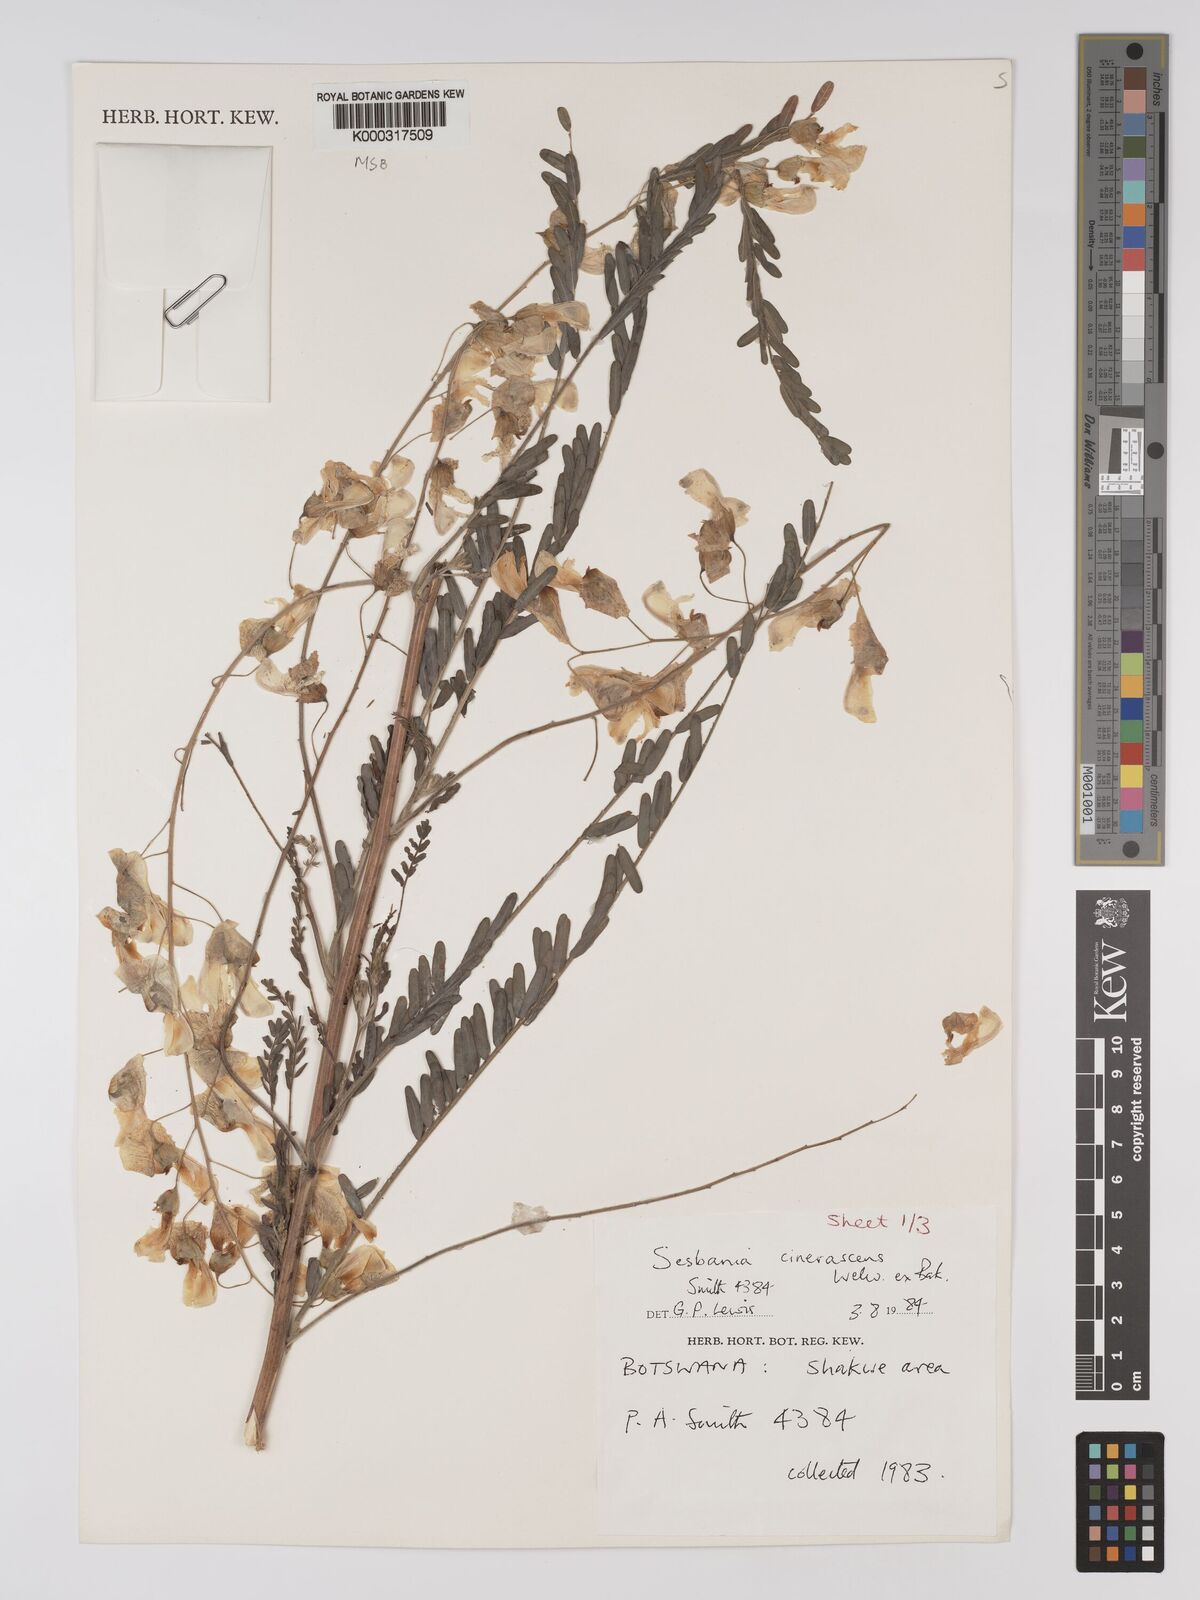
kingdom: Plantae
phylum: Tracheophyta
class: Magnoliopsida
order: Fabales
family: Fabaceae
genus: Sesbania
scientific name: Sesbania cinerascens
